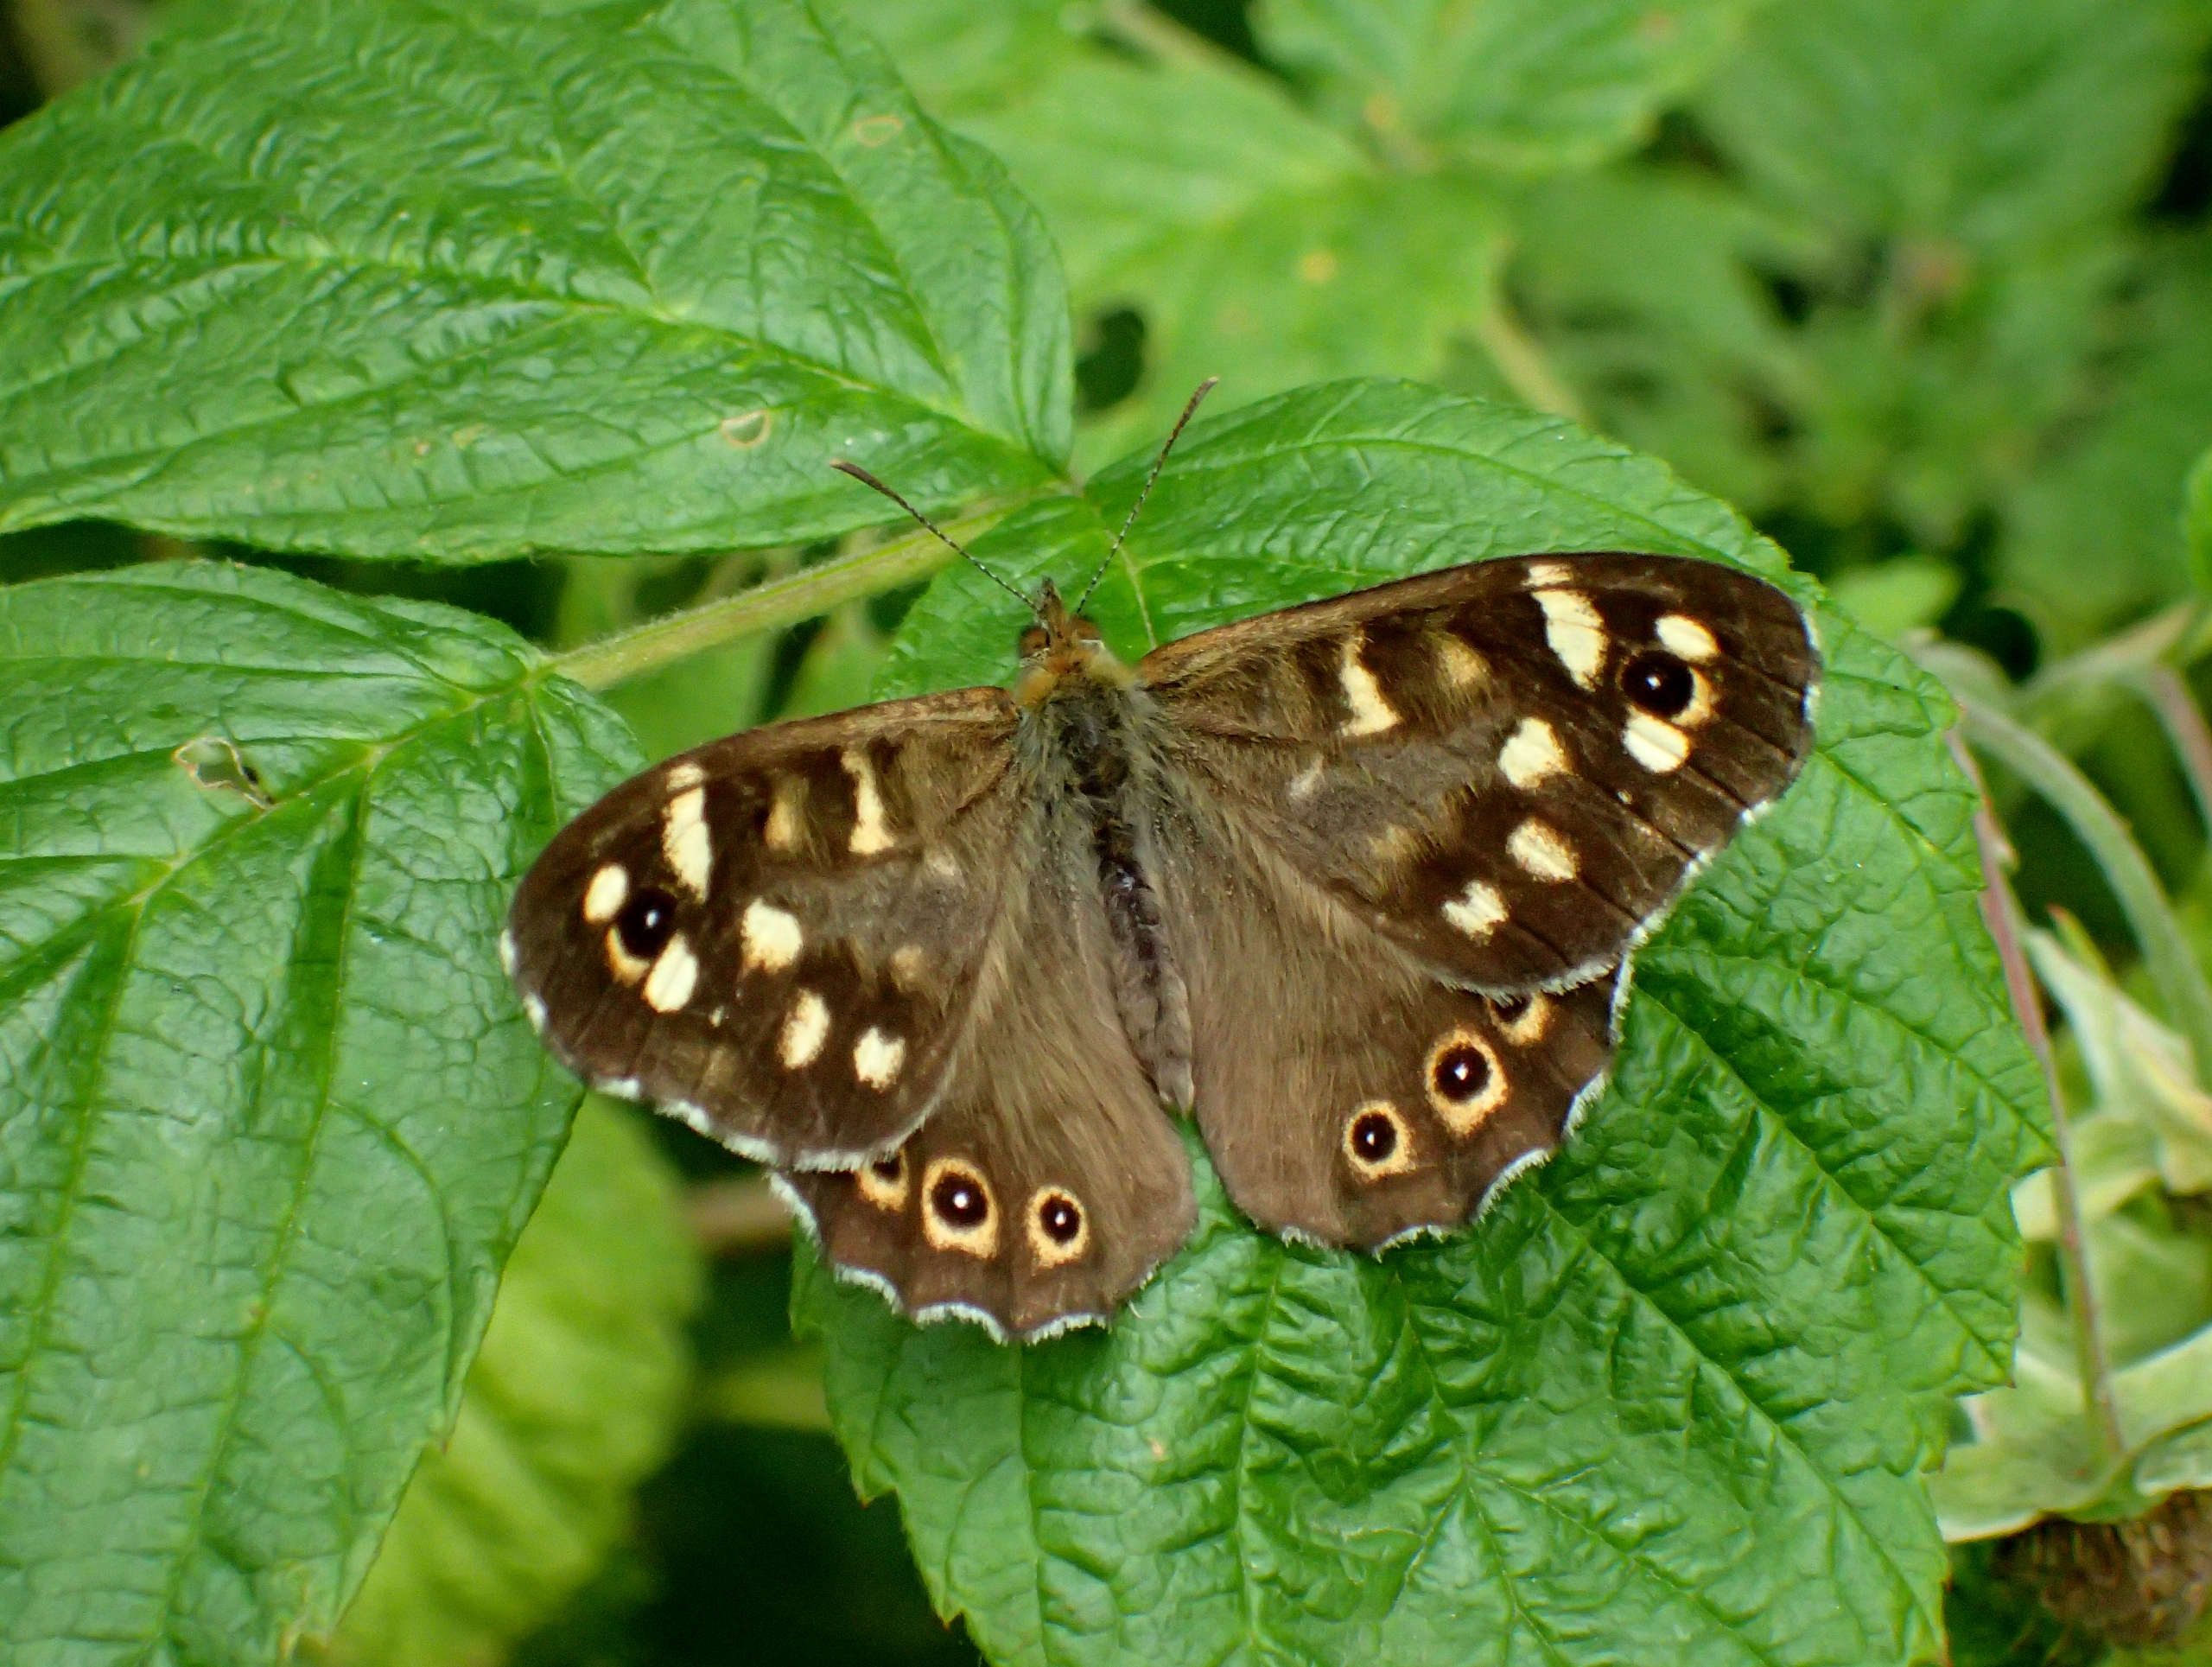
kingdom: Animalia
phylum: Arthropoda
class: Insecta
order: Lepidoptera
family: Nymphalidae
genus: Pararge
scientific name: Pararge aegeria
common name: Skovrandøje
